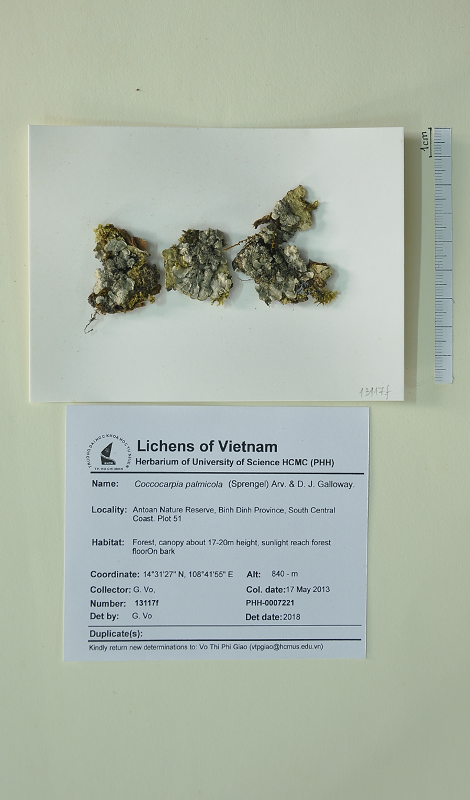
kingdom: Fungi
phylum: Ascomycota
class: Lecanoromycetes
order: Peltigerales
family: Coccocarpiaceae
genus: Coccocarpia
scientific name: Coccocarpia palmicola
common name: Salted shell lichen
